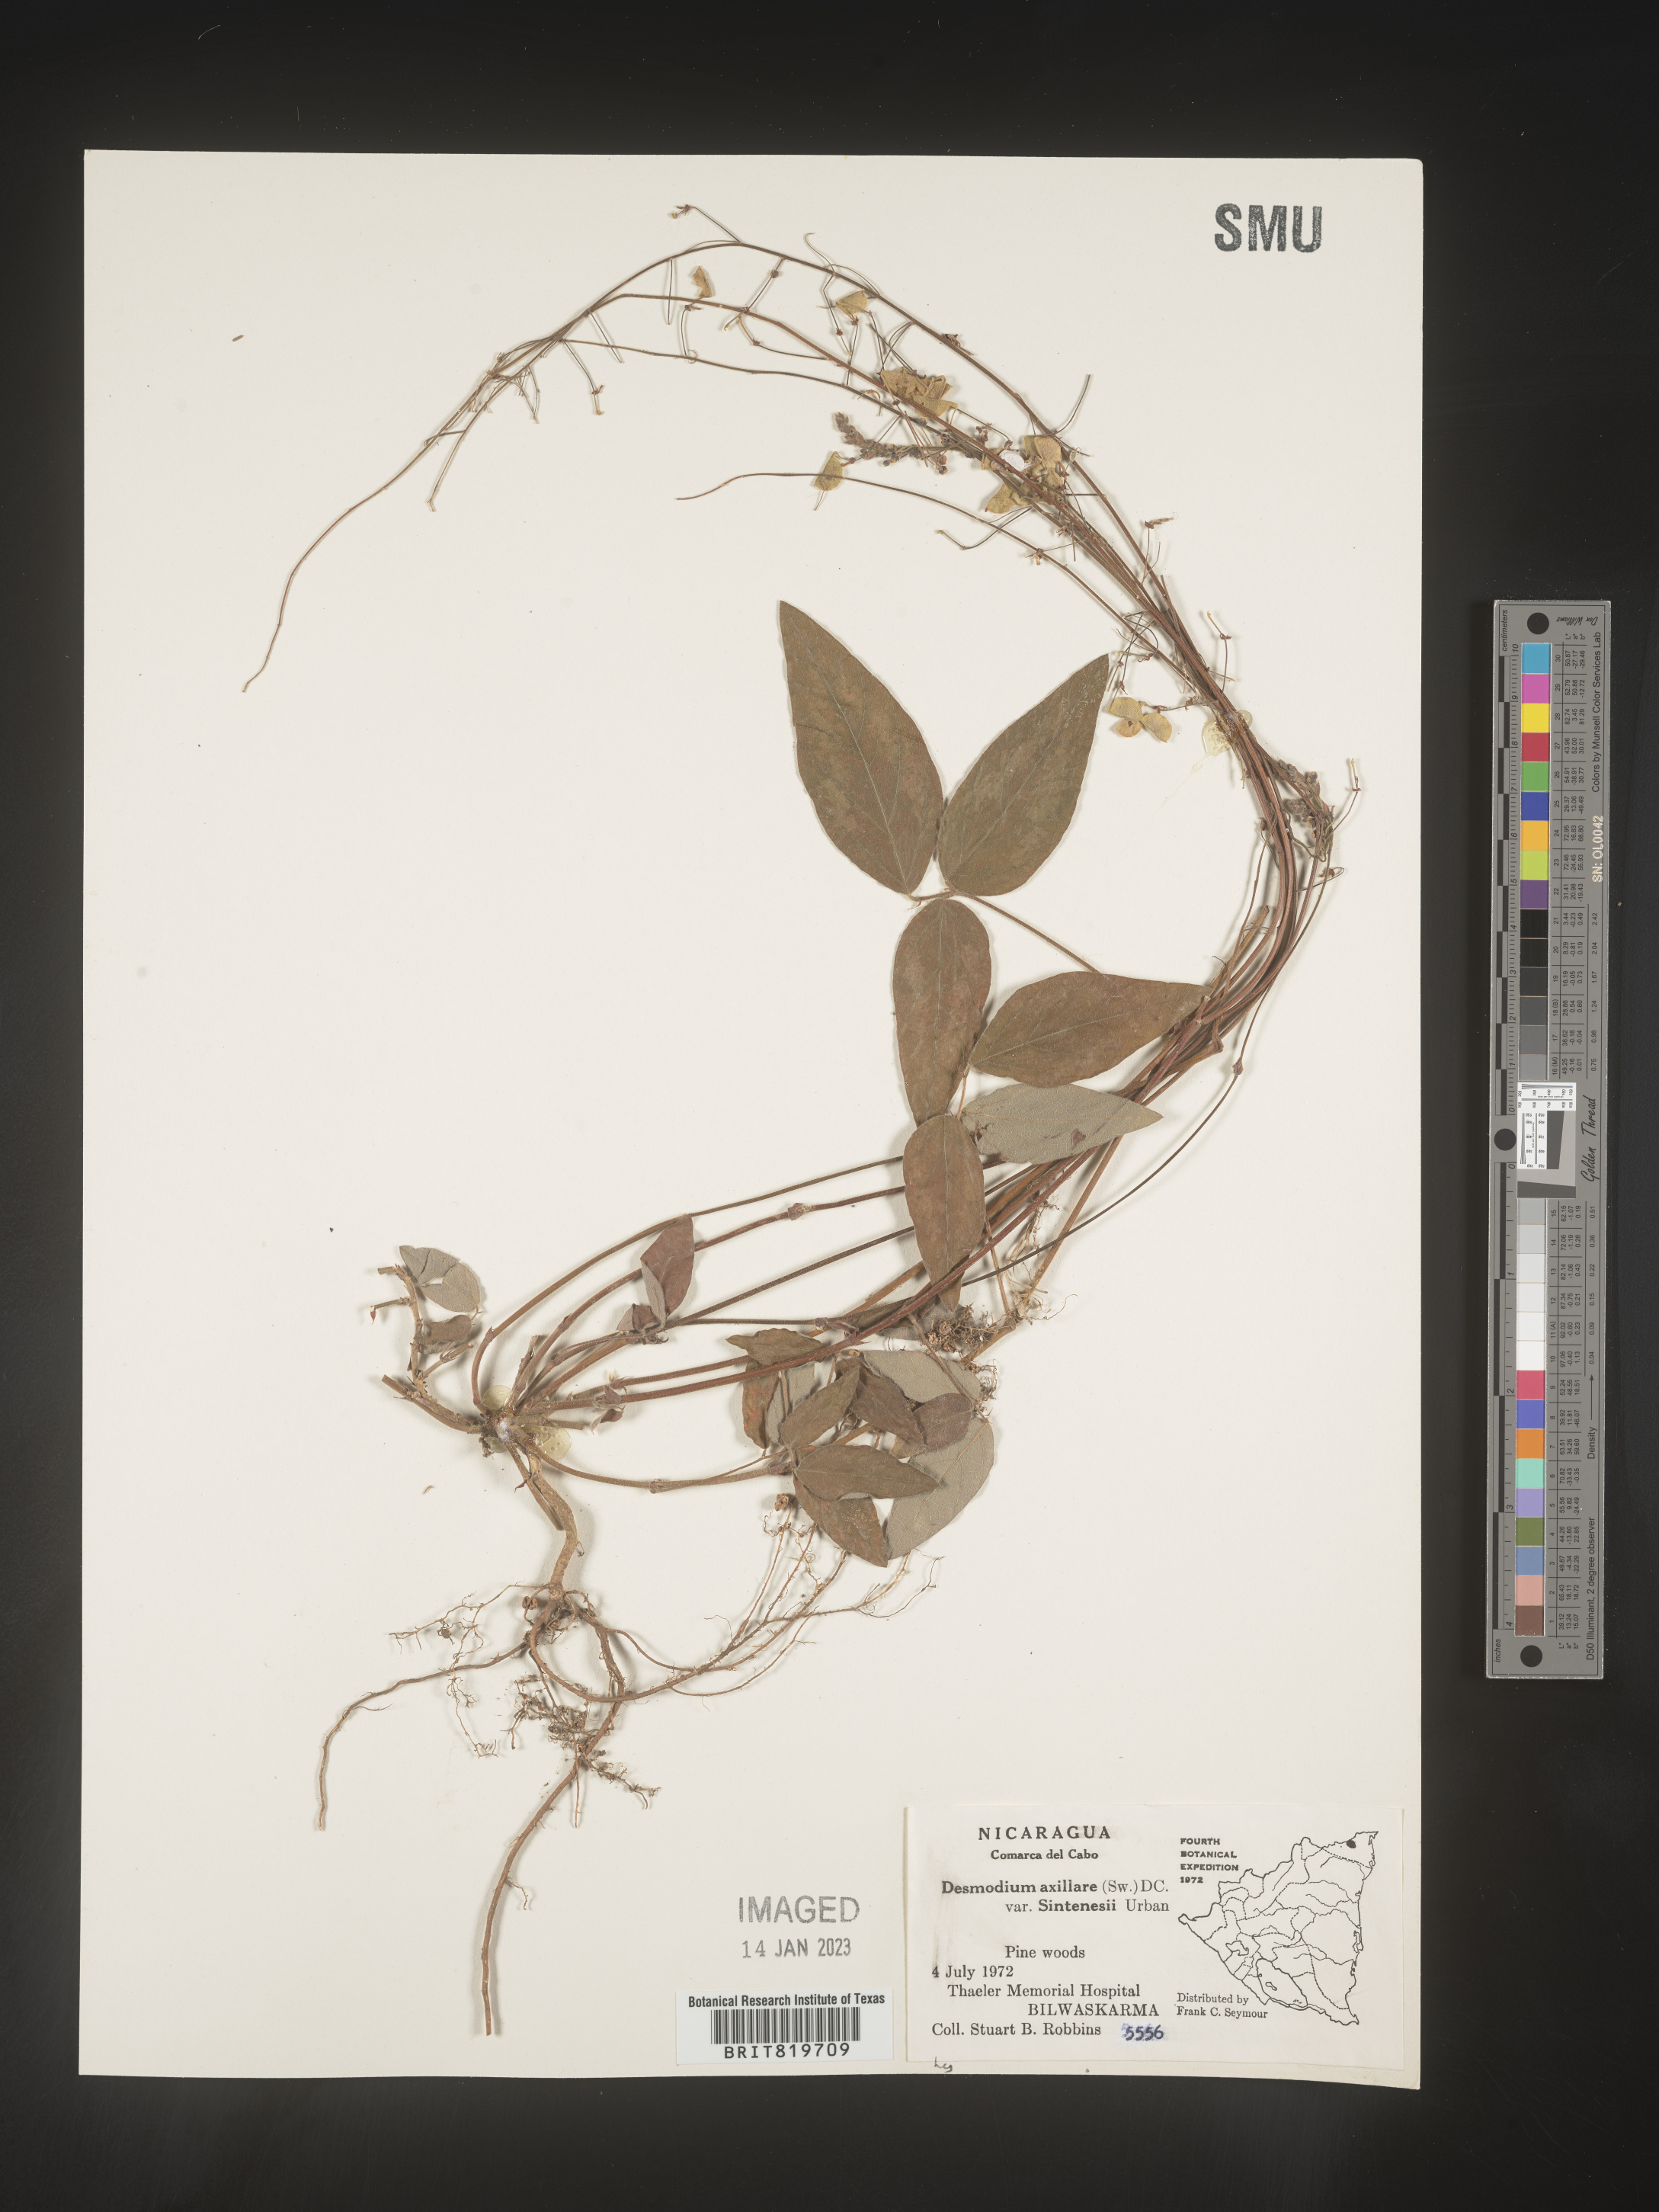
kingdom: Plantae
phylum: Tracheophyta
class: Magnoliopsida
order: Fabales
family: Fabaceae
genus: Desmodium
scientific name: Desmodium
